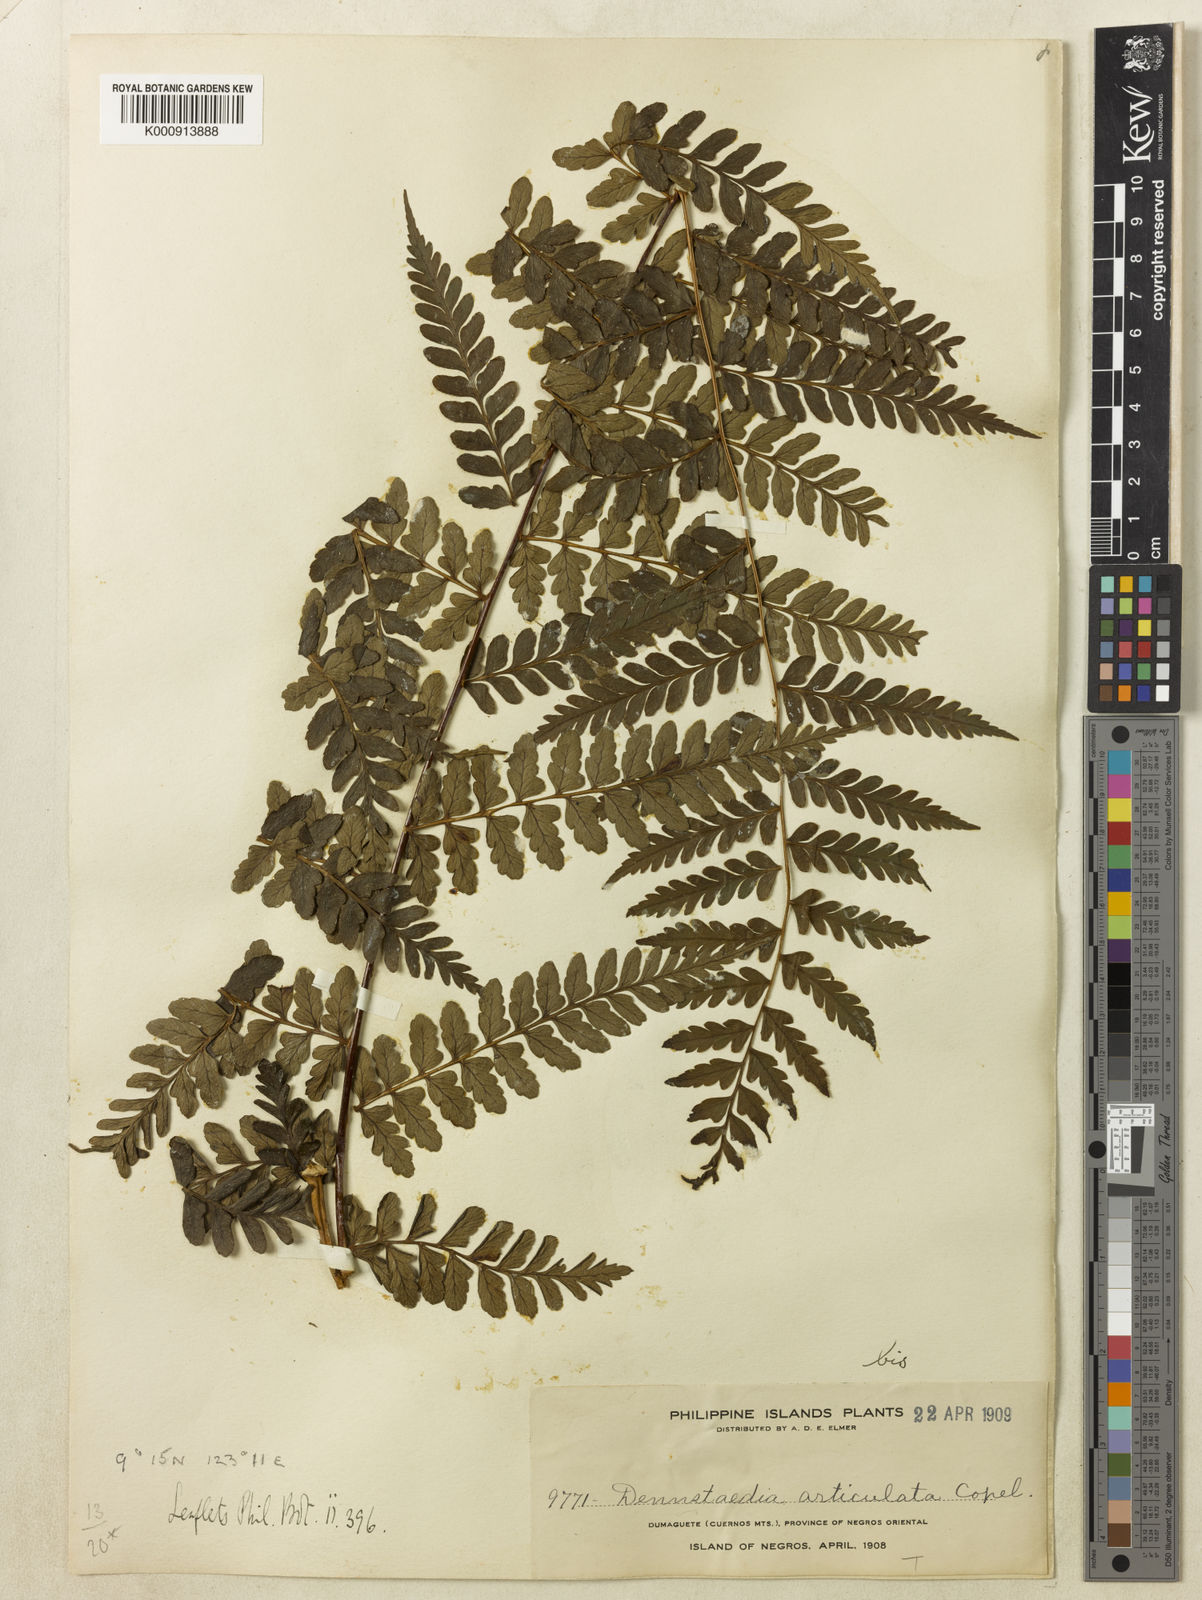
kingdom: Plantae
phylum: Tracheophyta
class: Polypodiopsida
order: Polypodiales
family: Dennstaedtiaceae
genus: Dennstaedtia
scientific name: Dennstaedtia articulata
